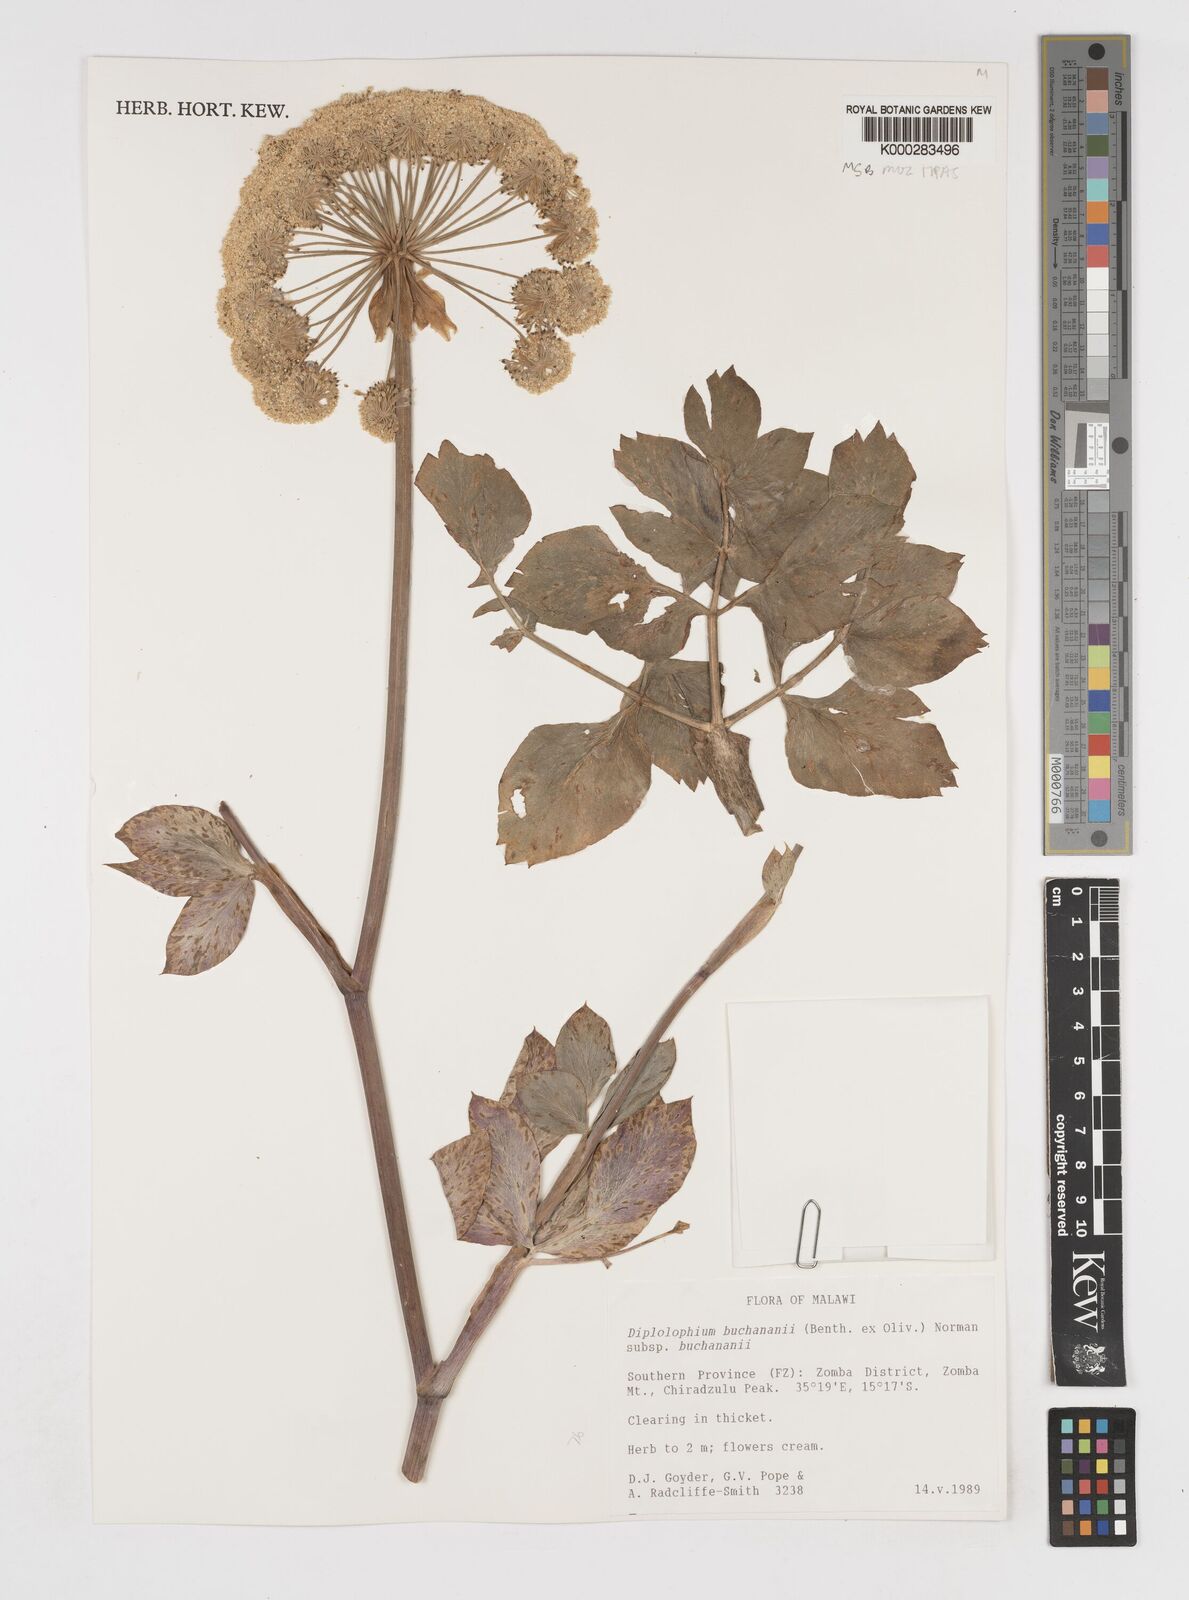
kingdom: Plantae
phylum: Tracheophyta
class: Magnoliopsida
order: Apiales
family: Apiaceae
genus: Diplolophium
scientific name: Diplolophium buchananii
